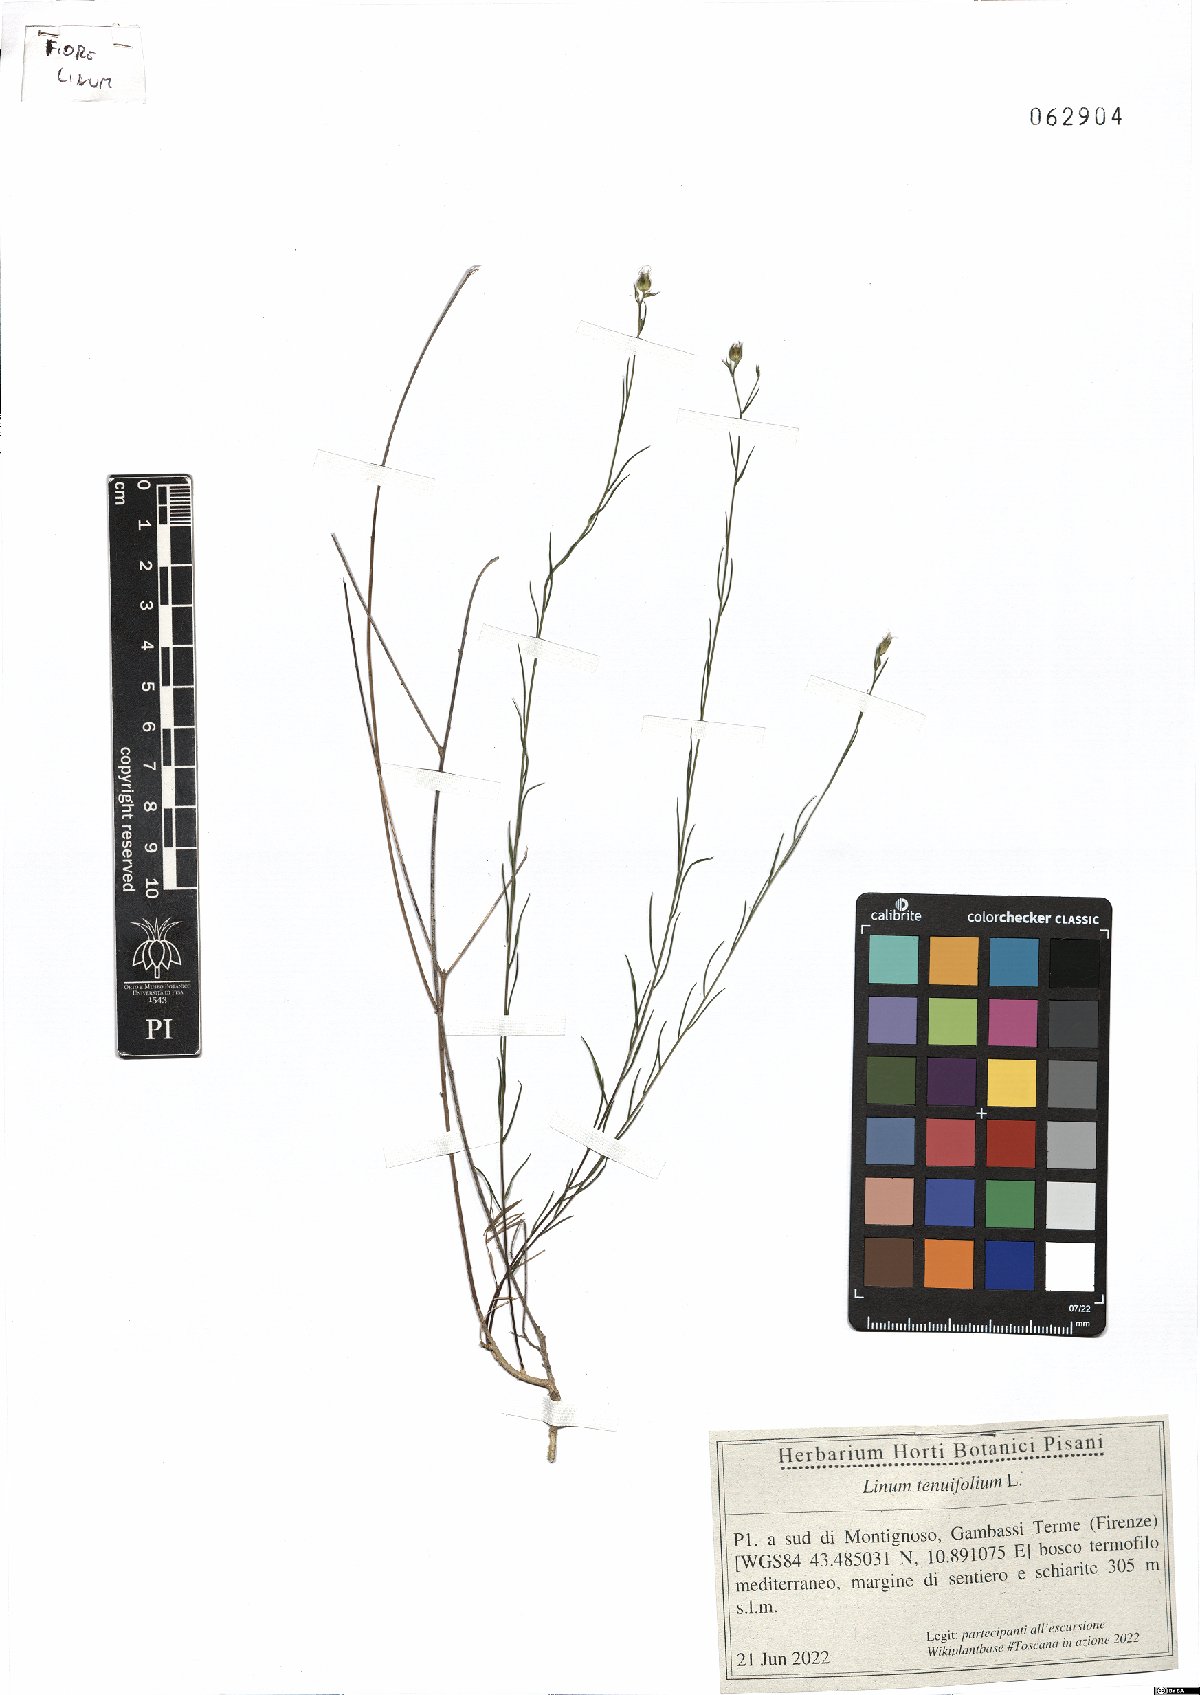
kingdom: Plantae
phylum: Tracheophyta
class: Magnoliopsida
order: Malpighiales
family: Linaceae
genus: Linum
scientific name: Linum tenuifolium
